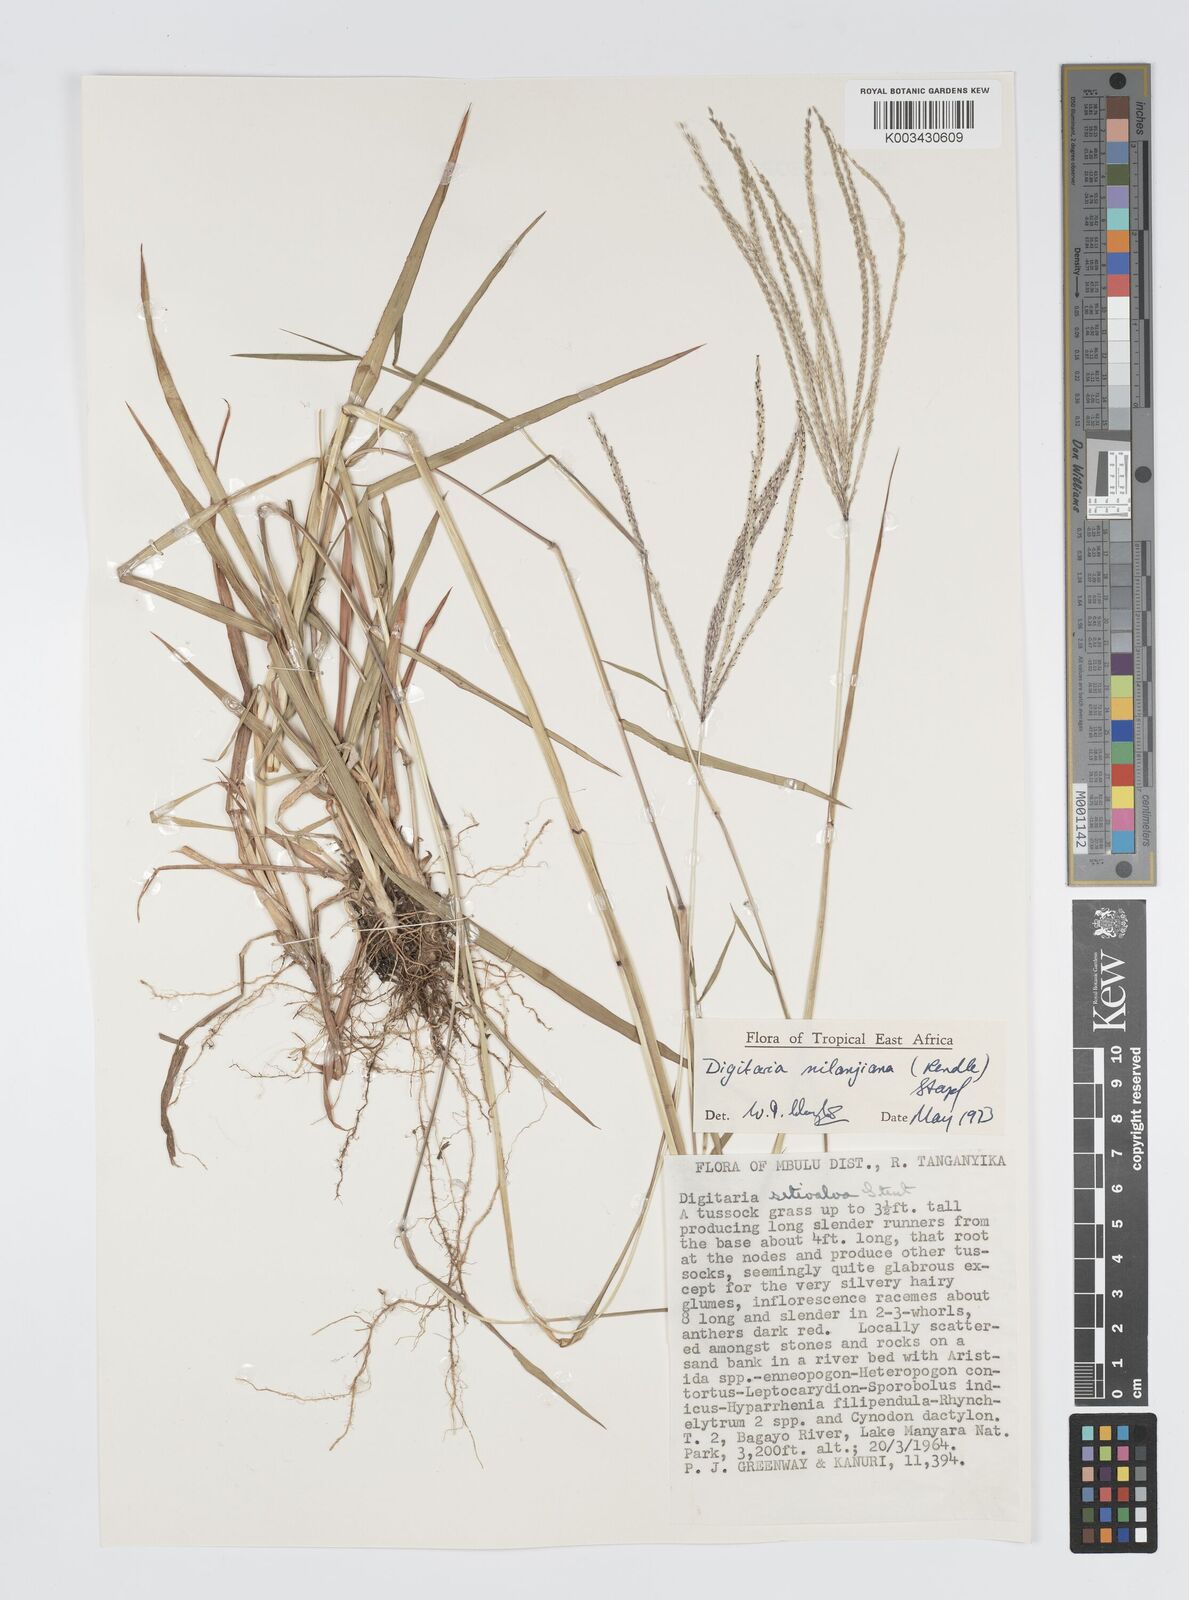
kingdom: Plantae
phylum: Tracheophyta
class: Liliopsida
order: Poales
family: Poaceae
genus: Digitaria
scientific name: Digitaria milanjiana
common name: Madagascar crabgrass
